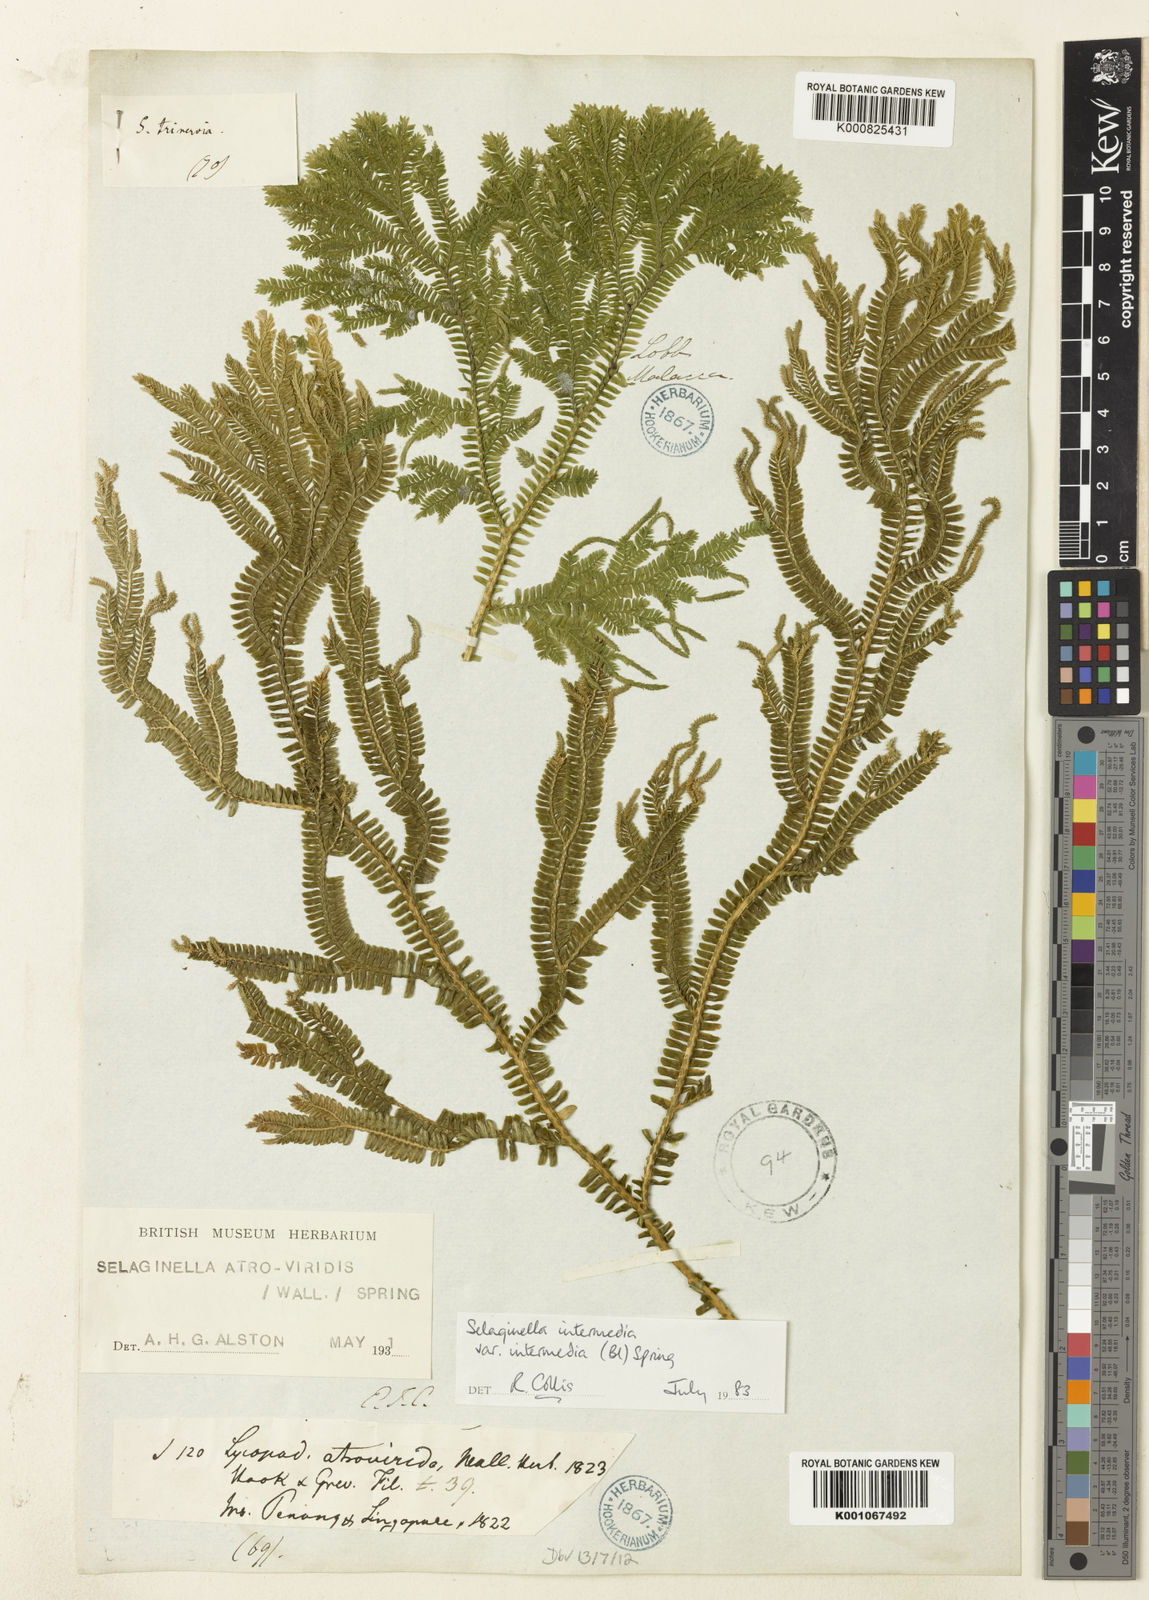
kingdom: Plantae
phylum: Tracheophyta
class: Lycopodiopsida
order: Selaginellales
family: Selaginellaceae
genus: Selaginella
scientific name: Selaginella intermedia
